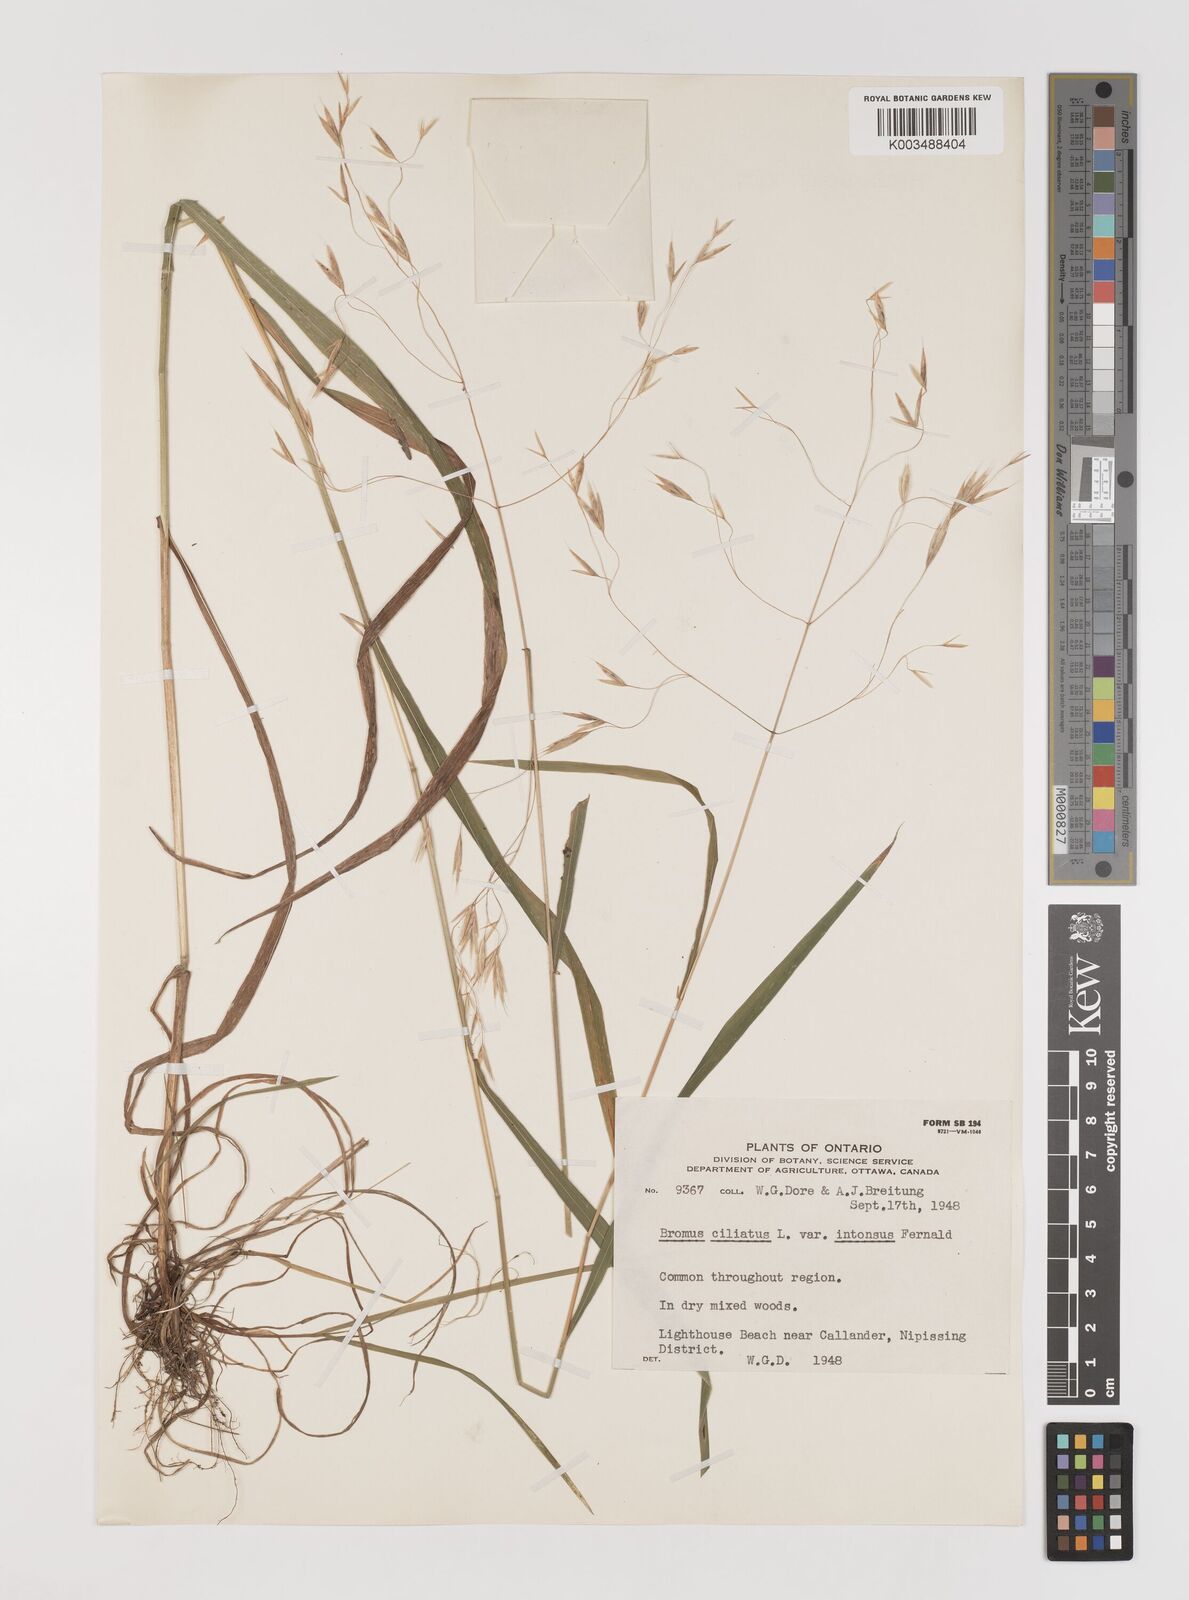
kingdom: Plantae
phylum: Tracheophyta
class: Liliopsida
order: Poales
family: Poaceae
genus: Bromus
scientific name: Bromus ciliatus
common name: Fringe brome
